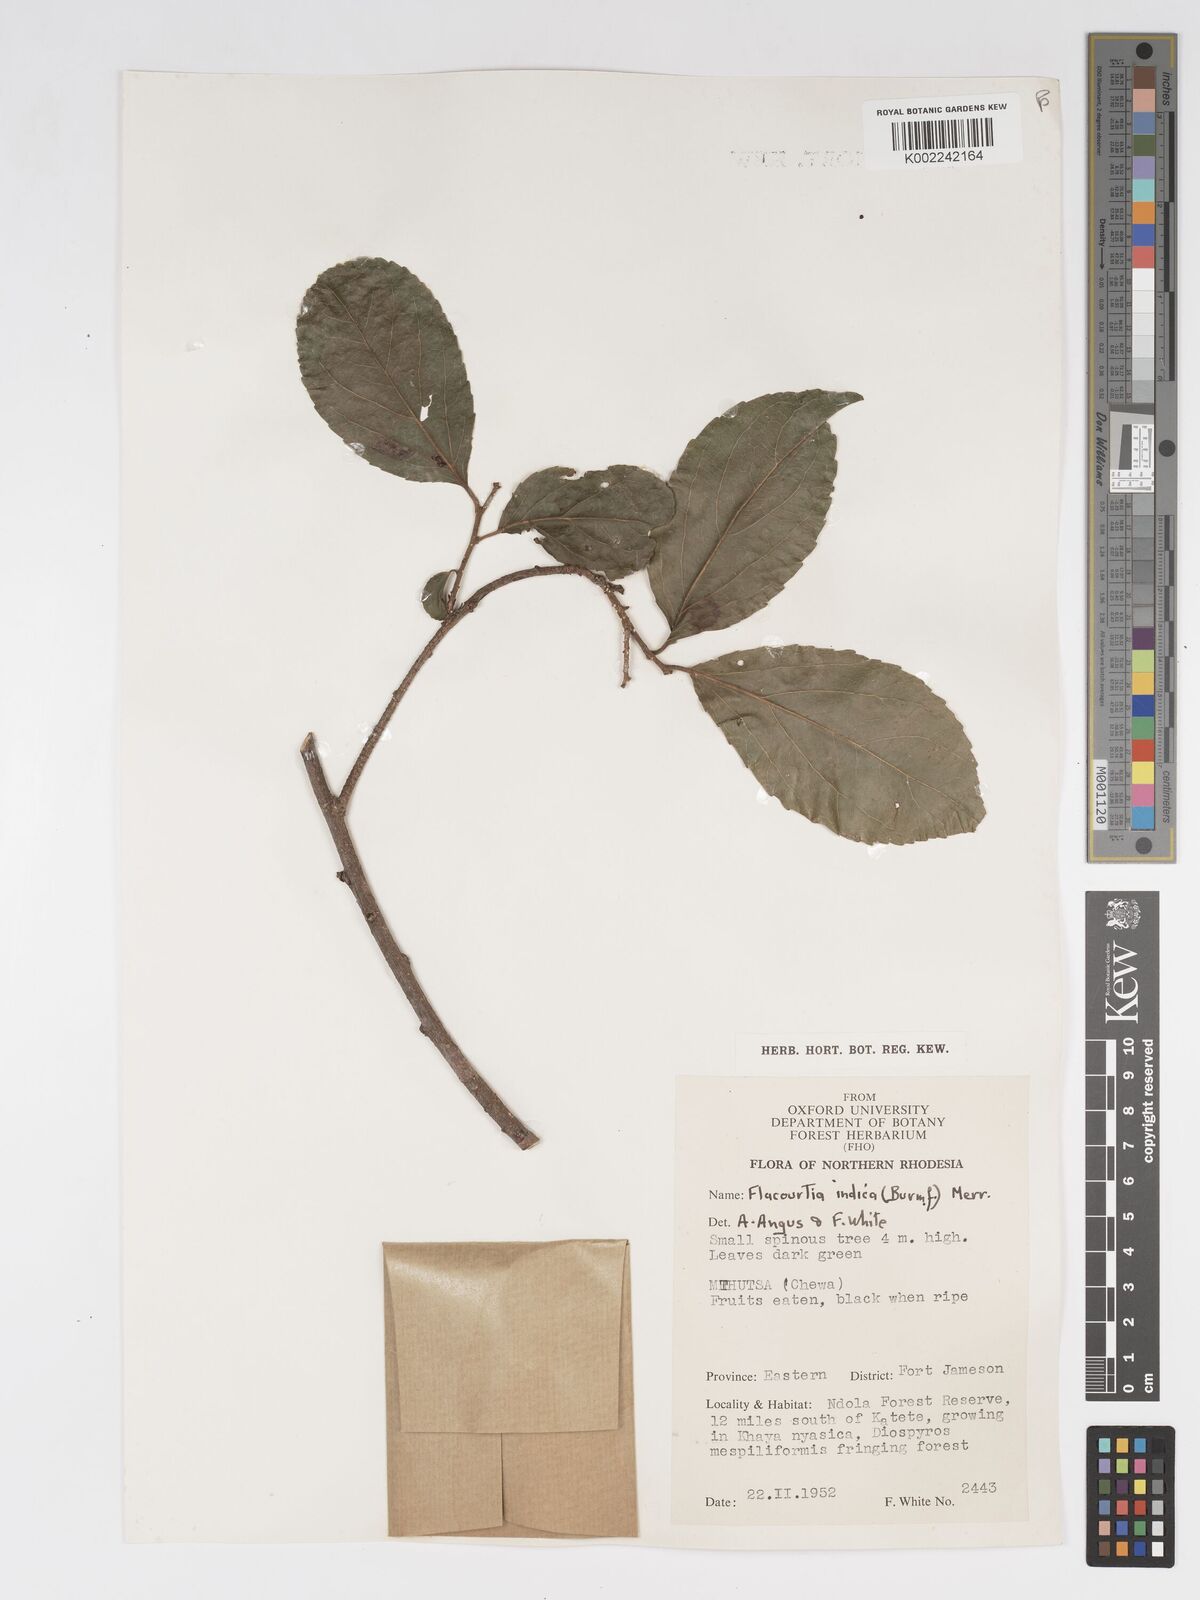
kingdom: Plantae
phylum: Tracheophyta
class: Magnoliopsida
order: Malpighiales
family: Salicaceae
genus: Flacourtia
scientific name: Flacourtia indica
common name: Governor's plum
